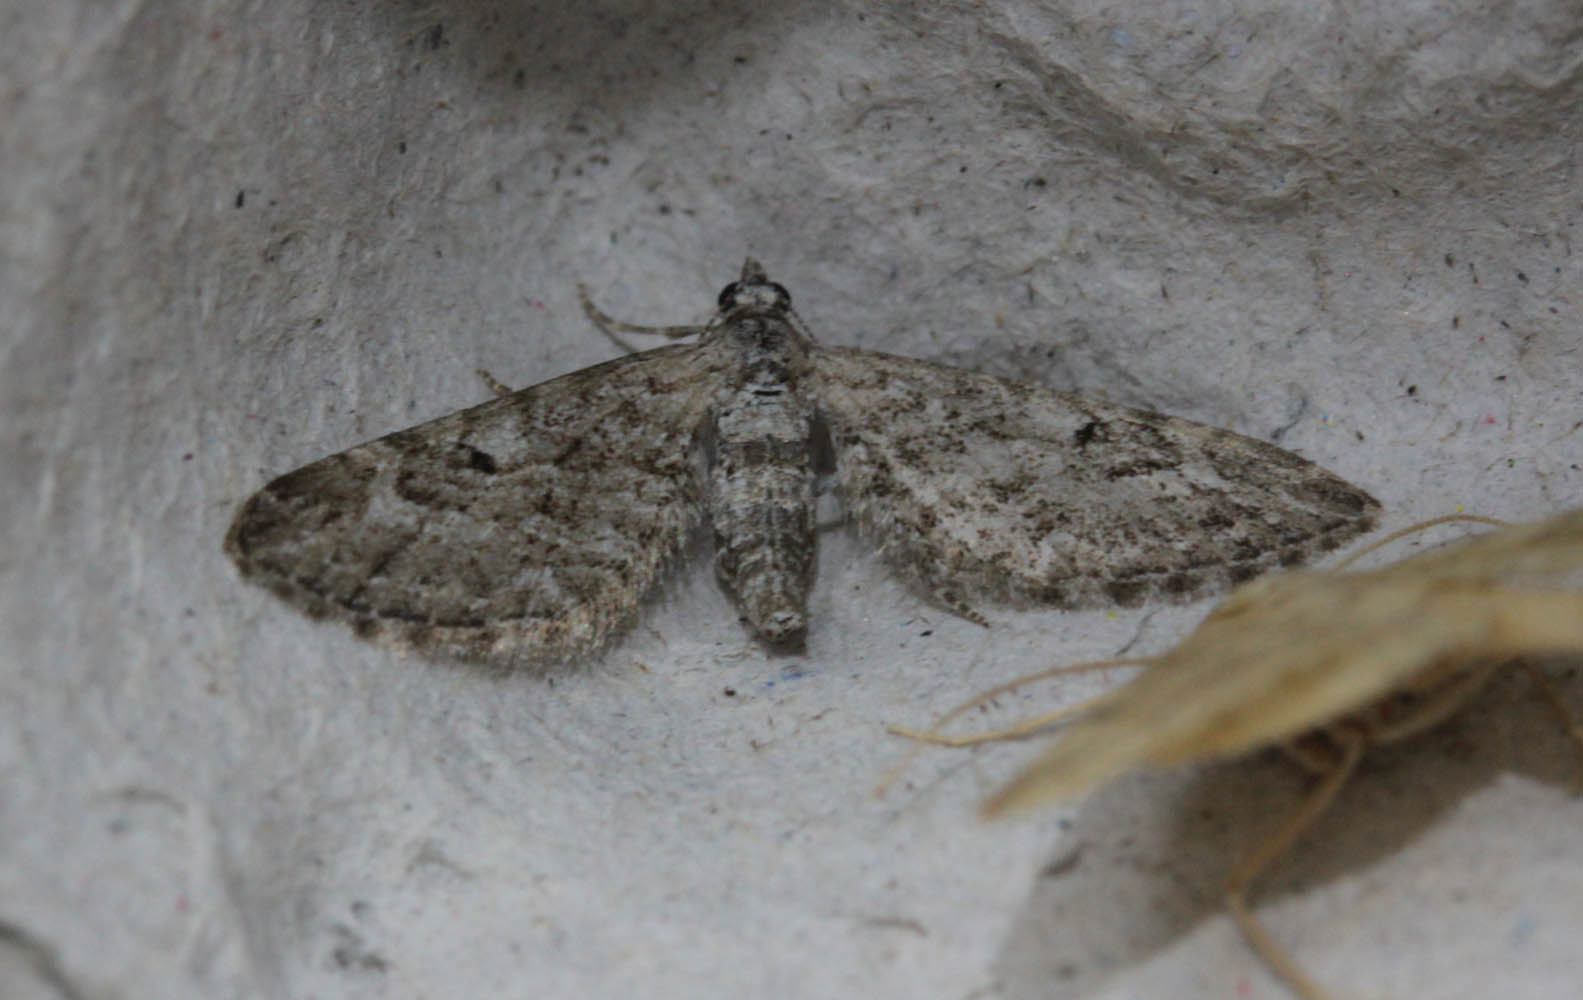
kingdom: Animalia
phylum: Arthropoda
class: Insecta
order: Lepidoptera
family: Geometridae
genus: Eupithecia
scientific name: Eupithecia nanata
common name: Narrow-winged pug
